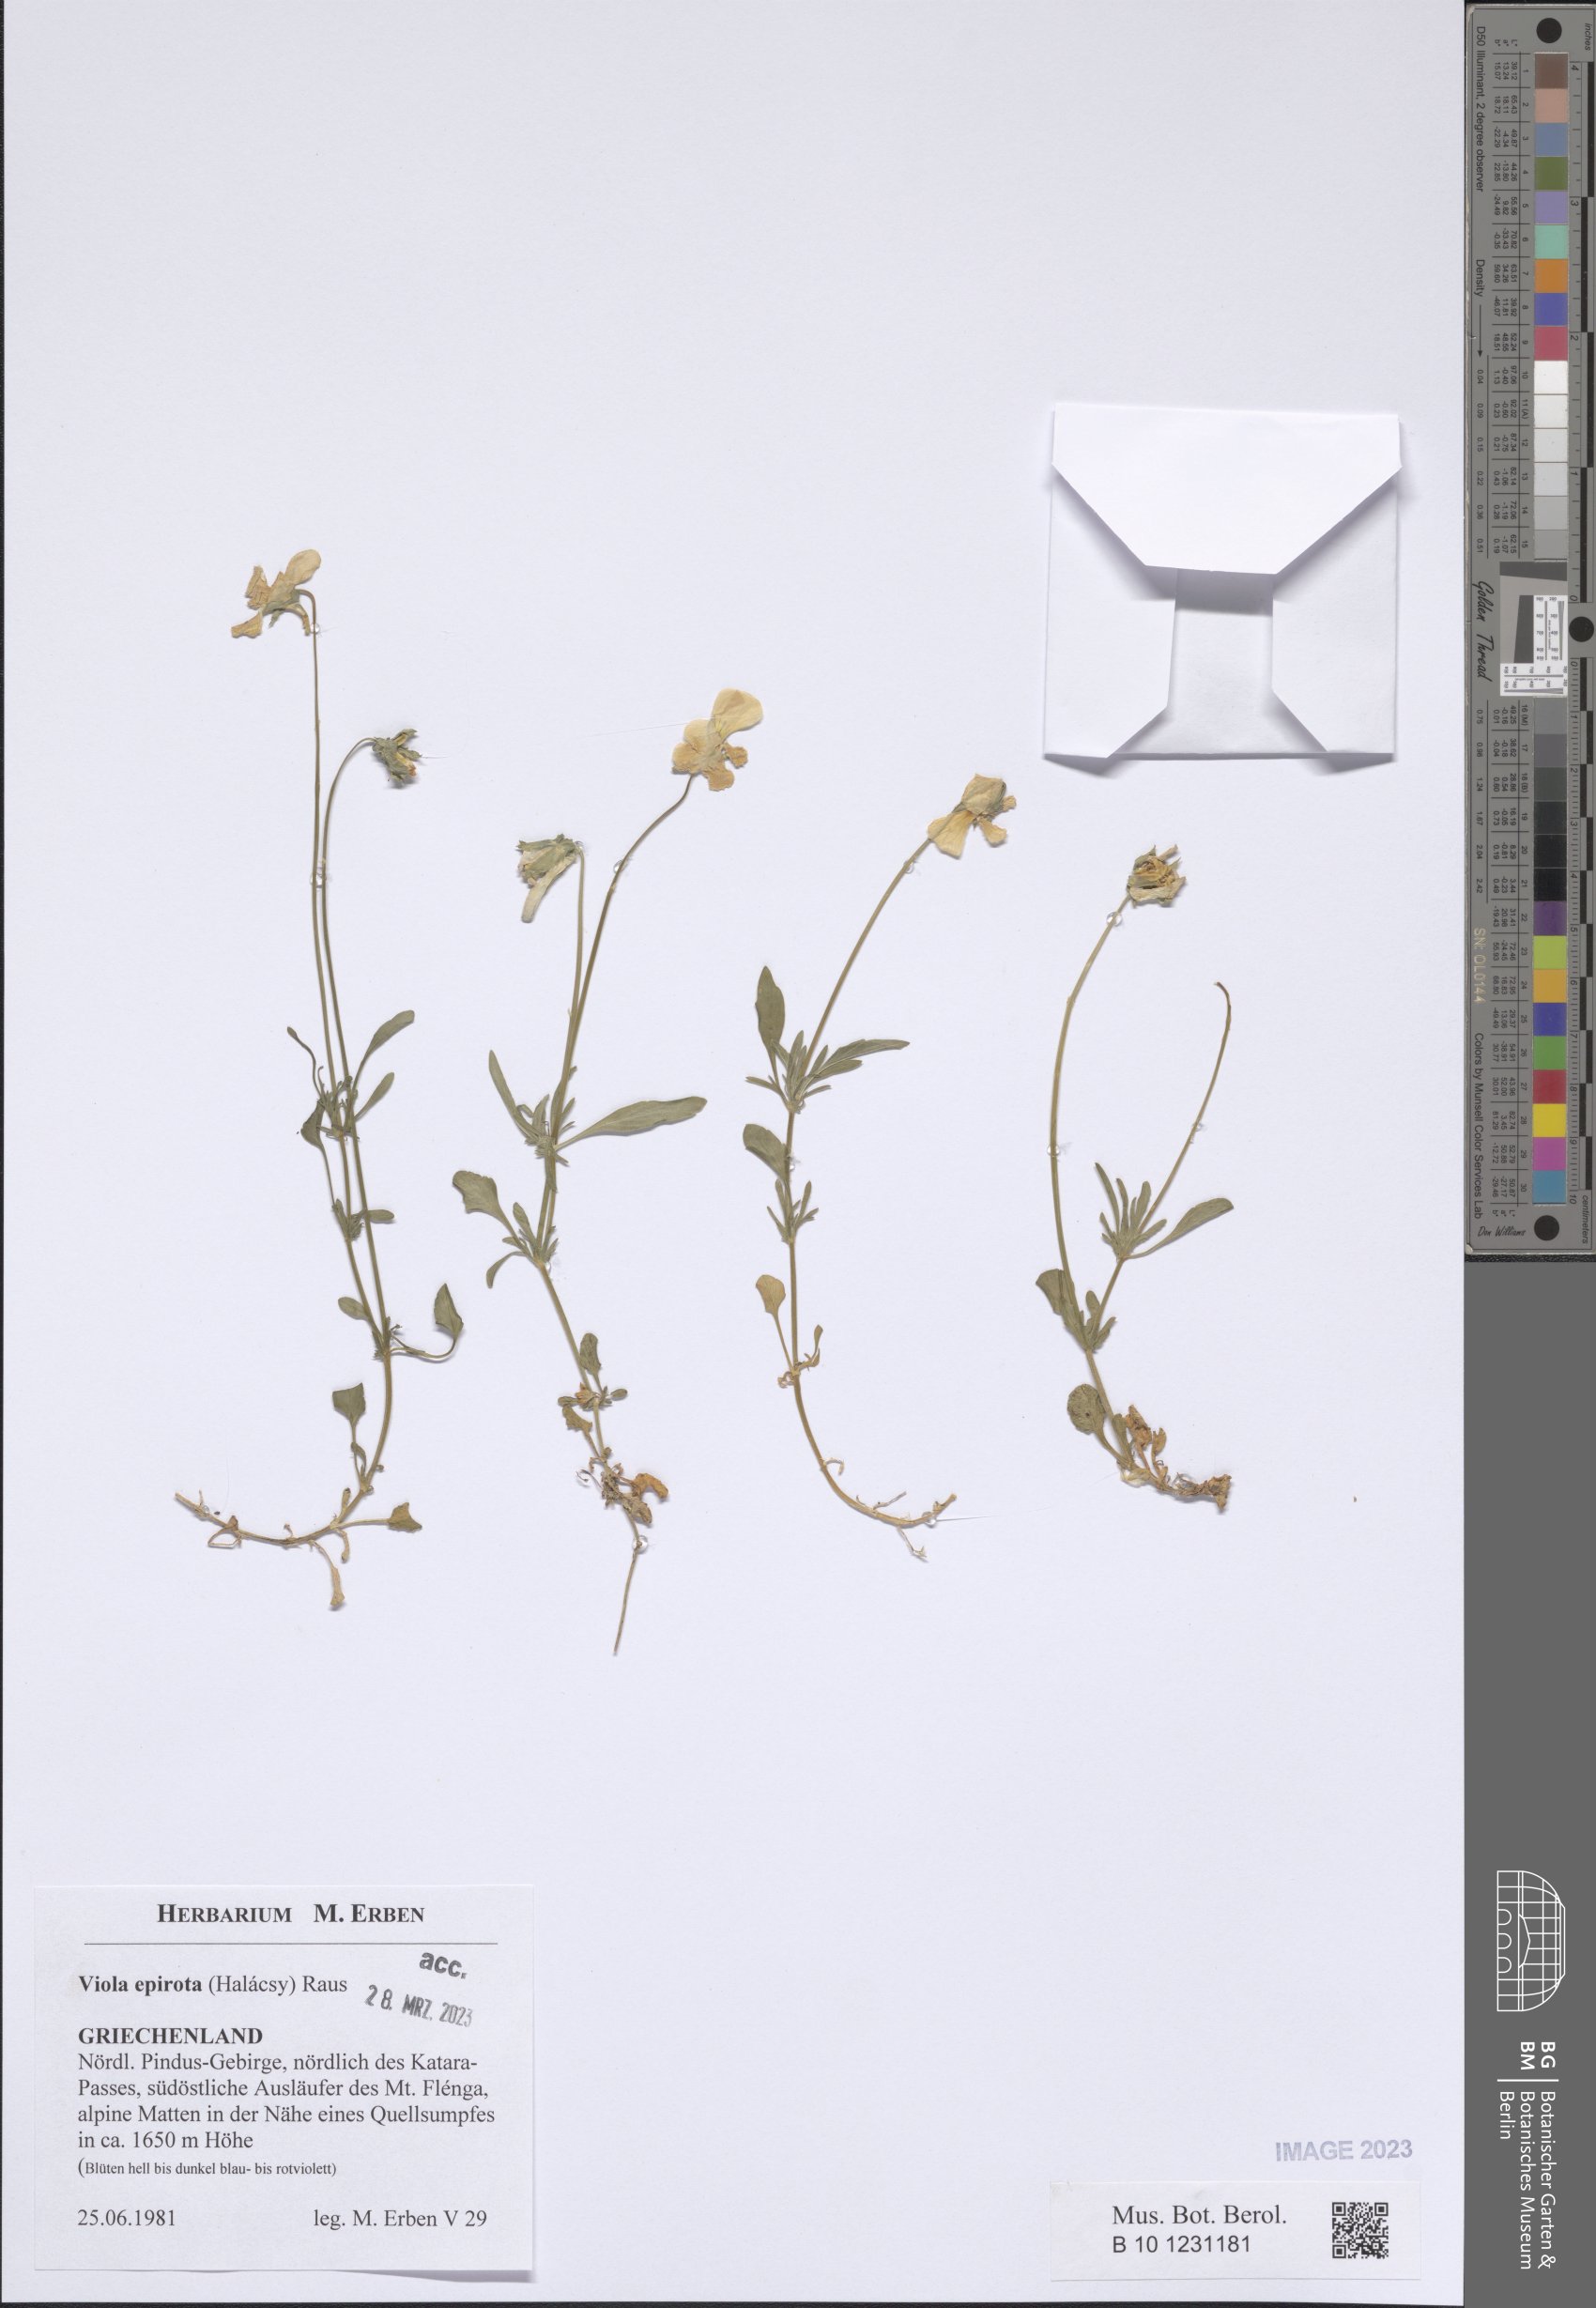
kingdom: Plantae
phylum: Tracheophyta
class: Magnoliopsida
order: Malpighiales
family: Violaceae
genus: Viola
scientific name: Viola epirota
